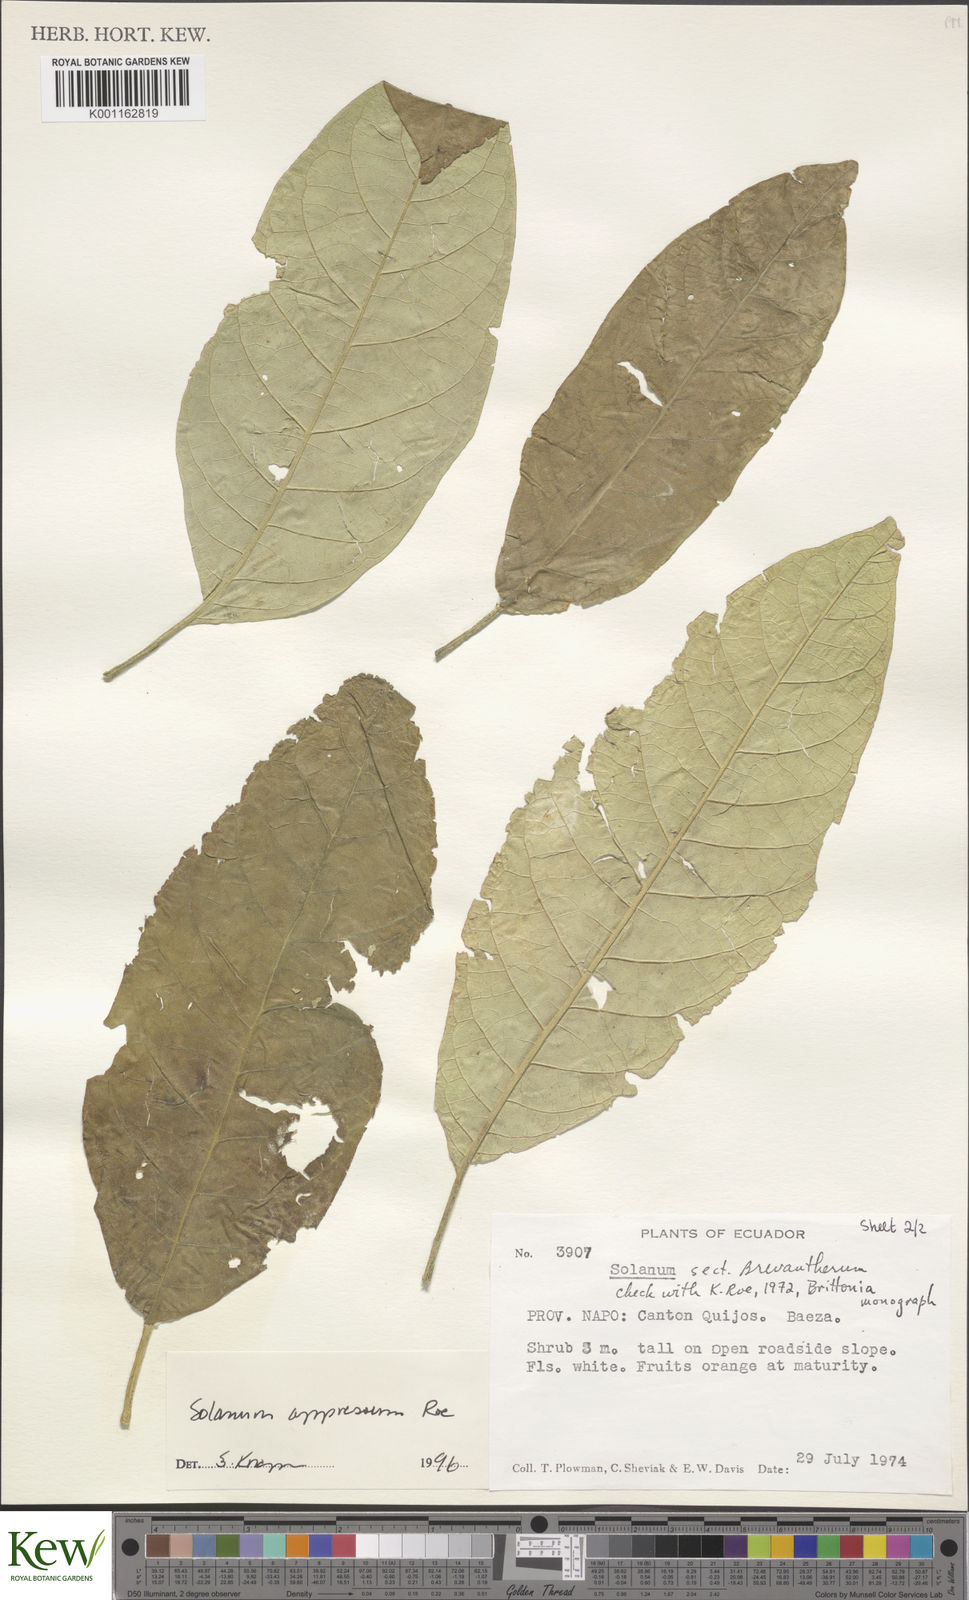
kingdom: Plantae
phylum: Tracheophyta
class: Magnoliopsida
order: Solanales
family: Solanaceae
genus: Solanum
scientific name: Solanum appressum
